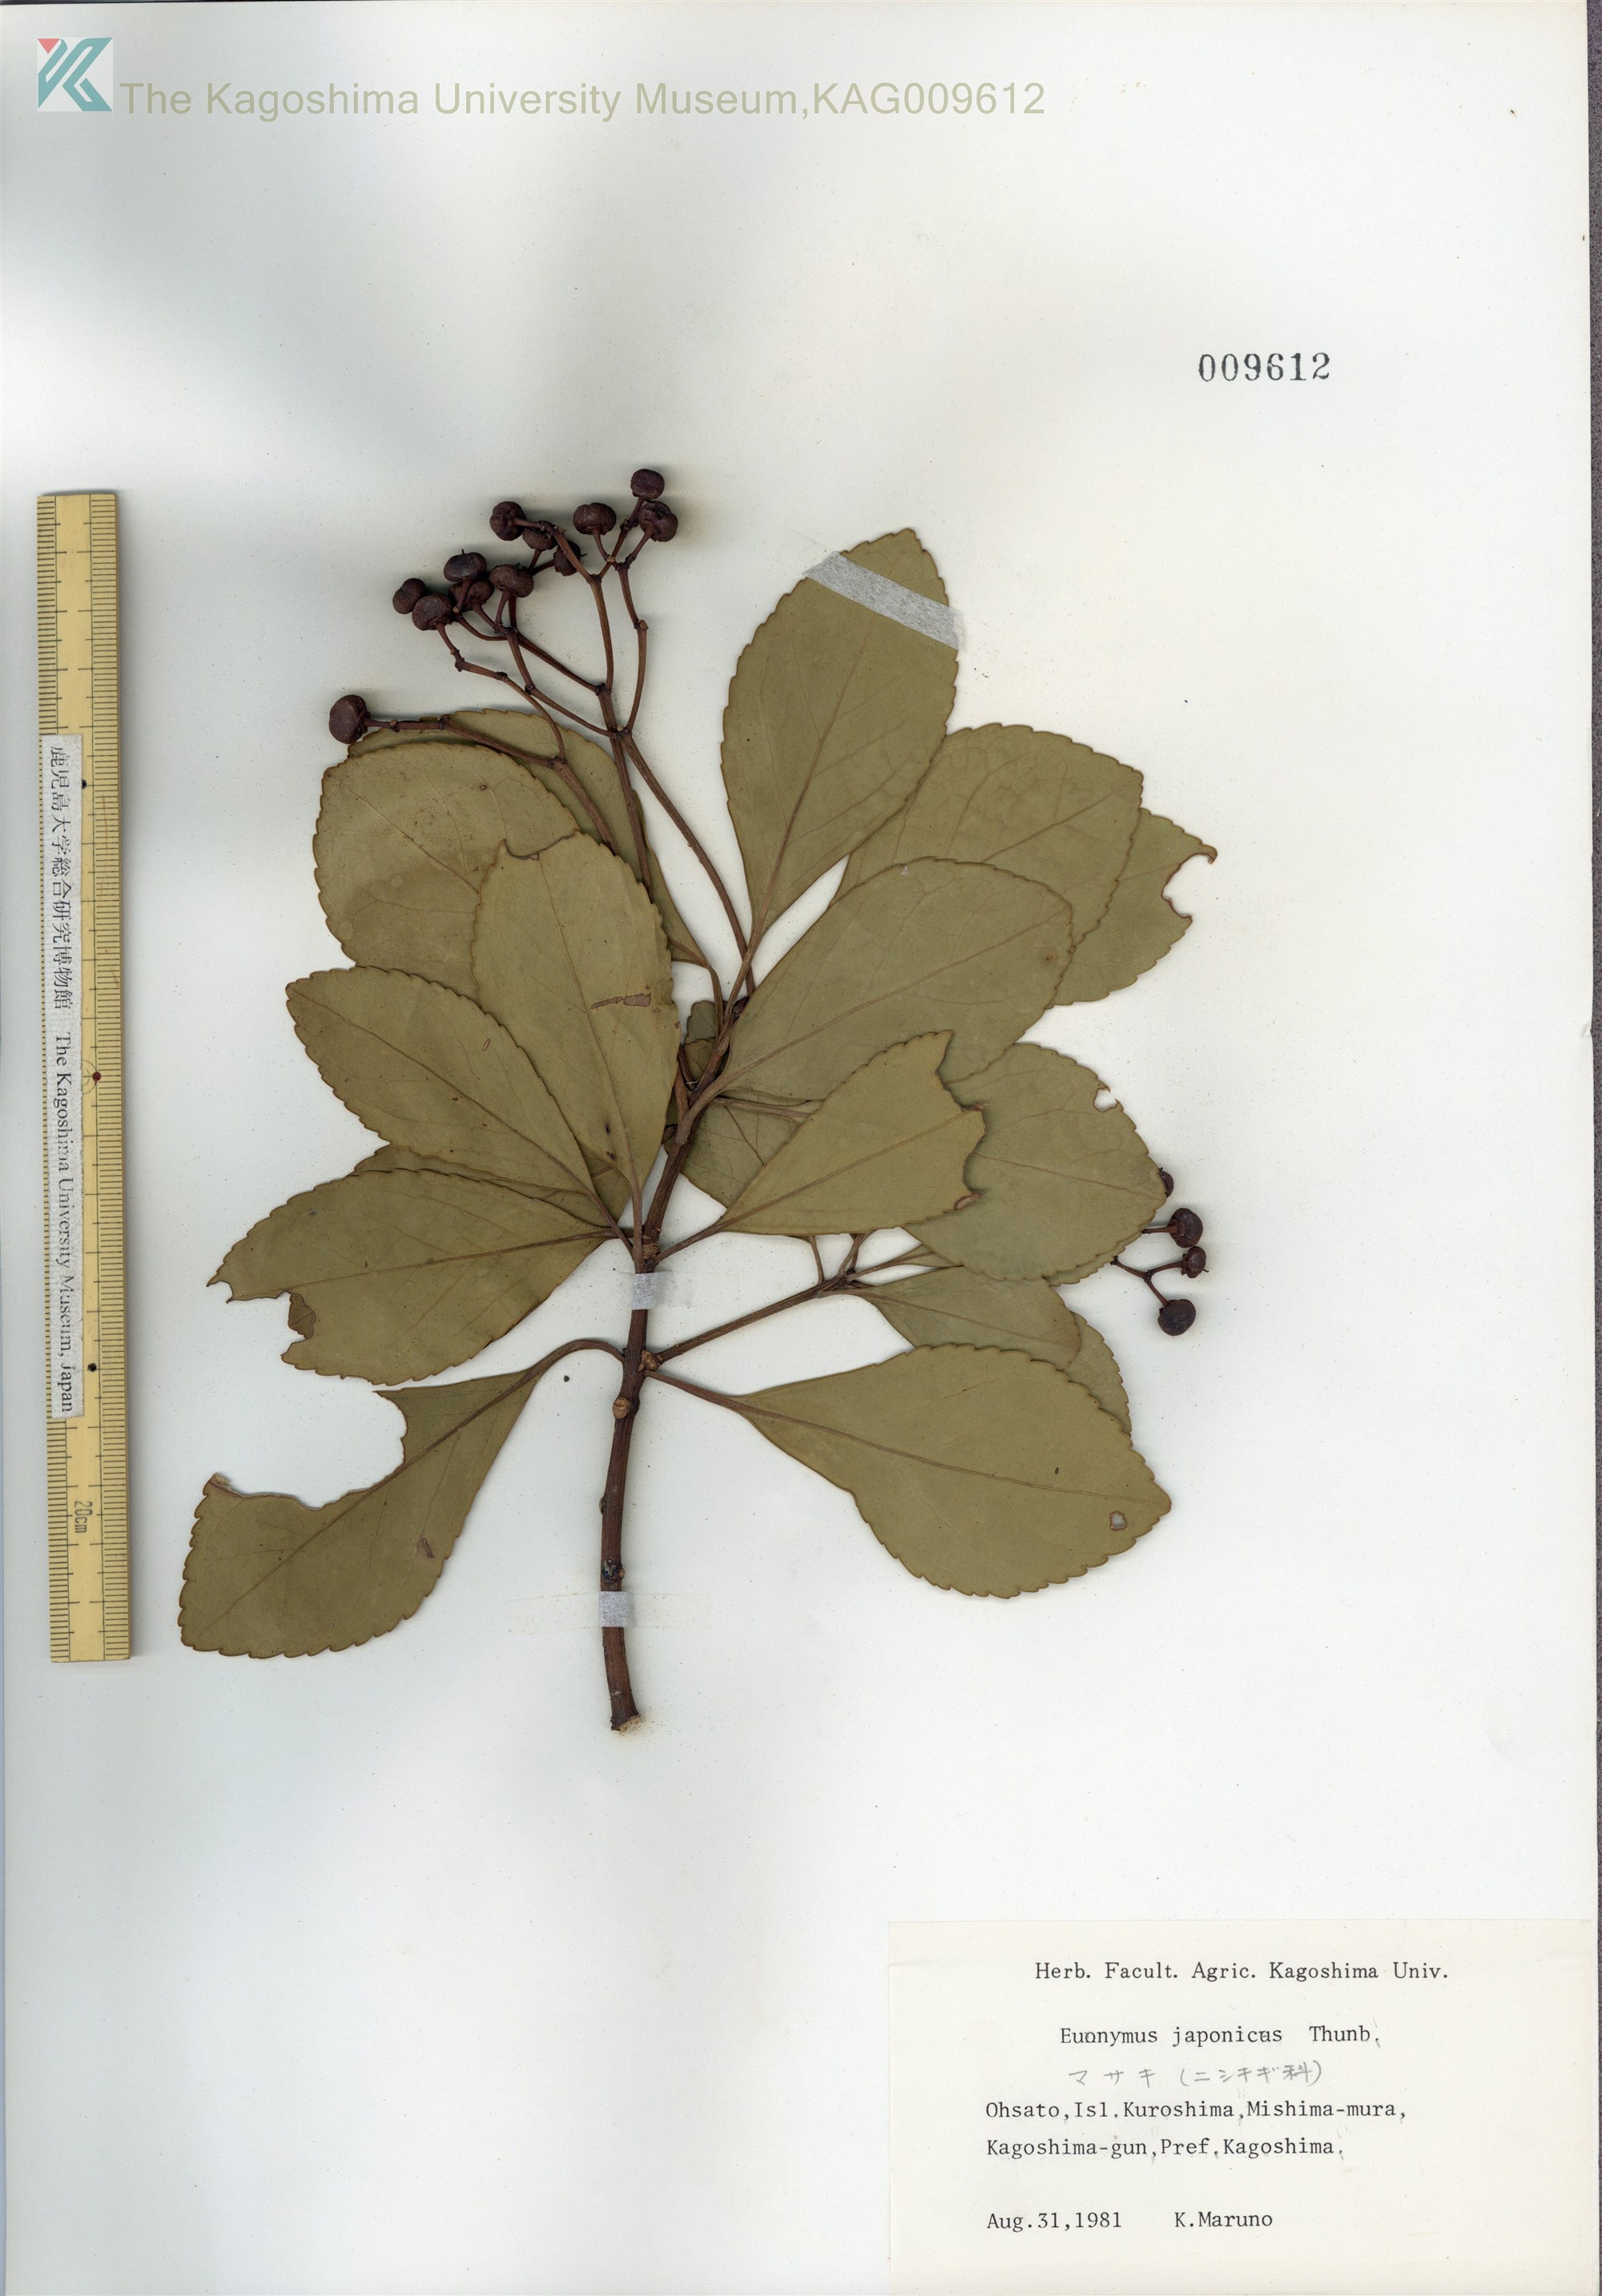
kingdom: Plantae
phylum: Tracheophyta
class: Magnoliopsida
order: Celastrales
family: Celastraceae
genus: Euonymus
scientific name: Euonymus japonicus
